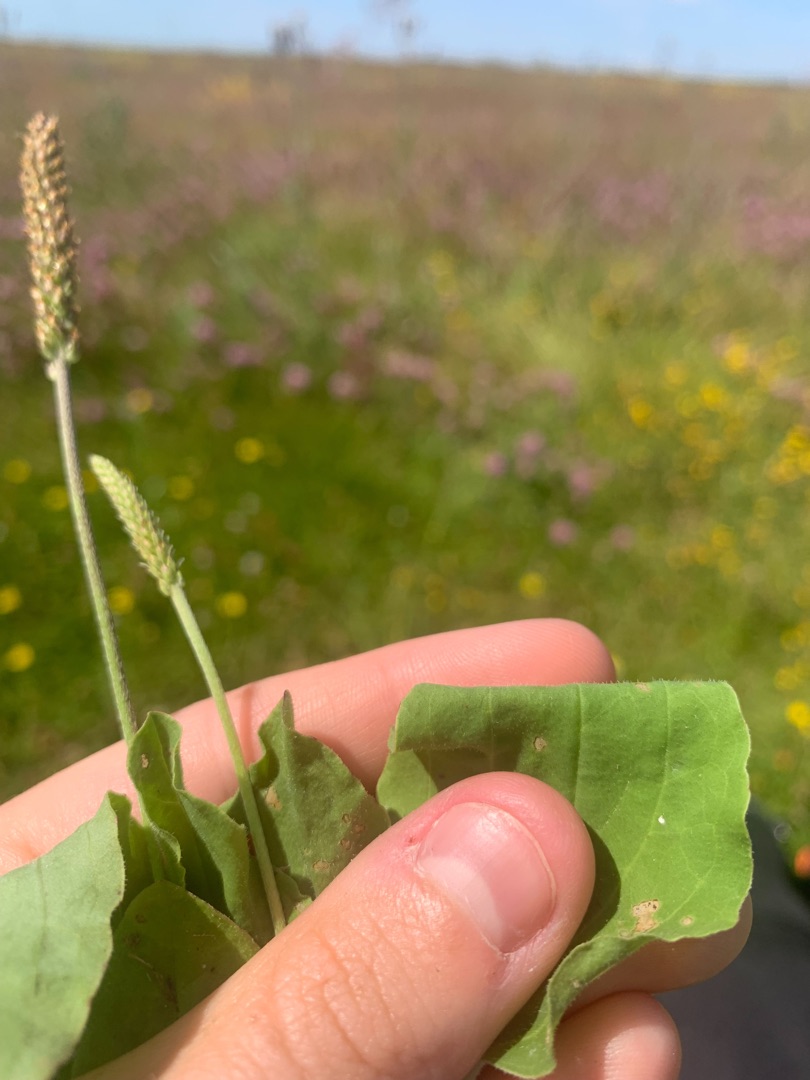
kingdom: Plantae
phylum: Tracheophyta
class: Magnoliopsida
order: Lamiales
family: Plantaginaceae
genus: Plantago
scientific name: Plantago major
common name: Glat vejbred
